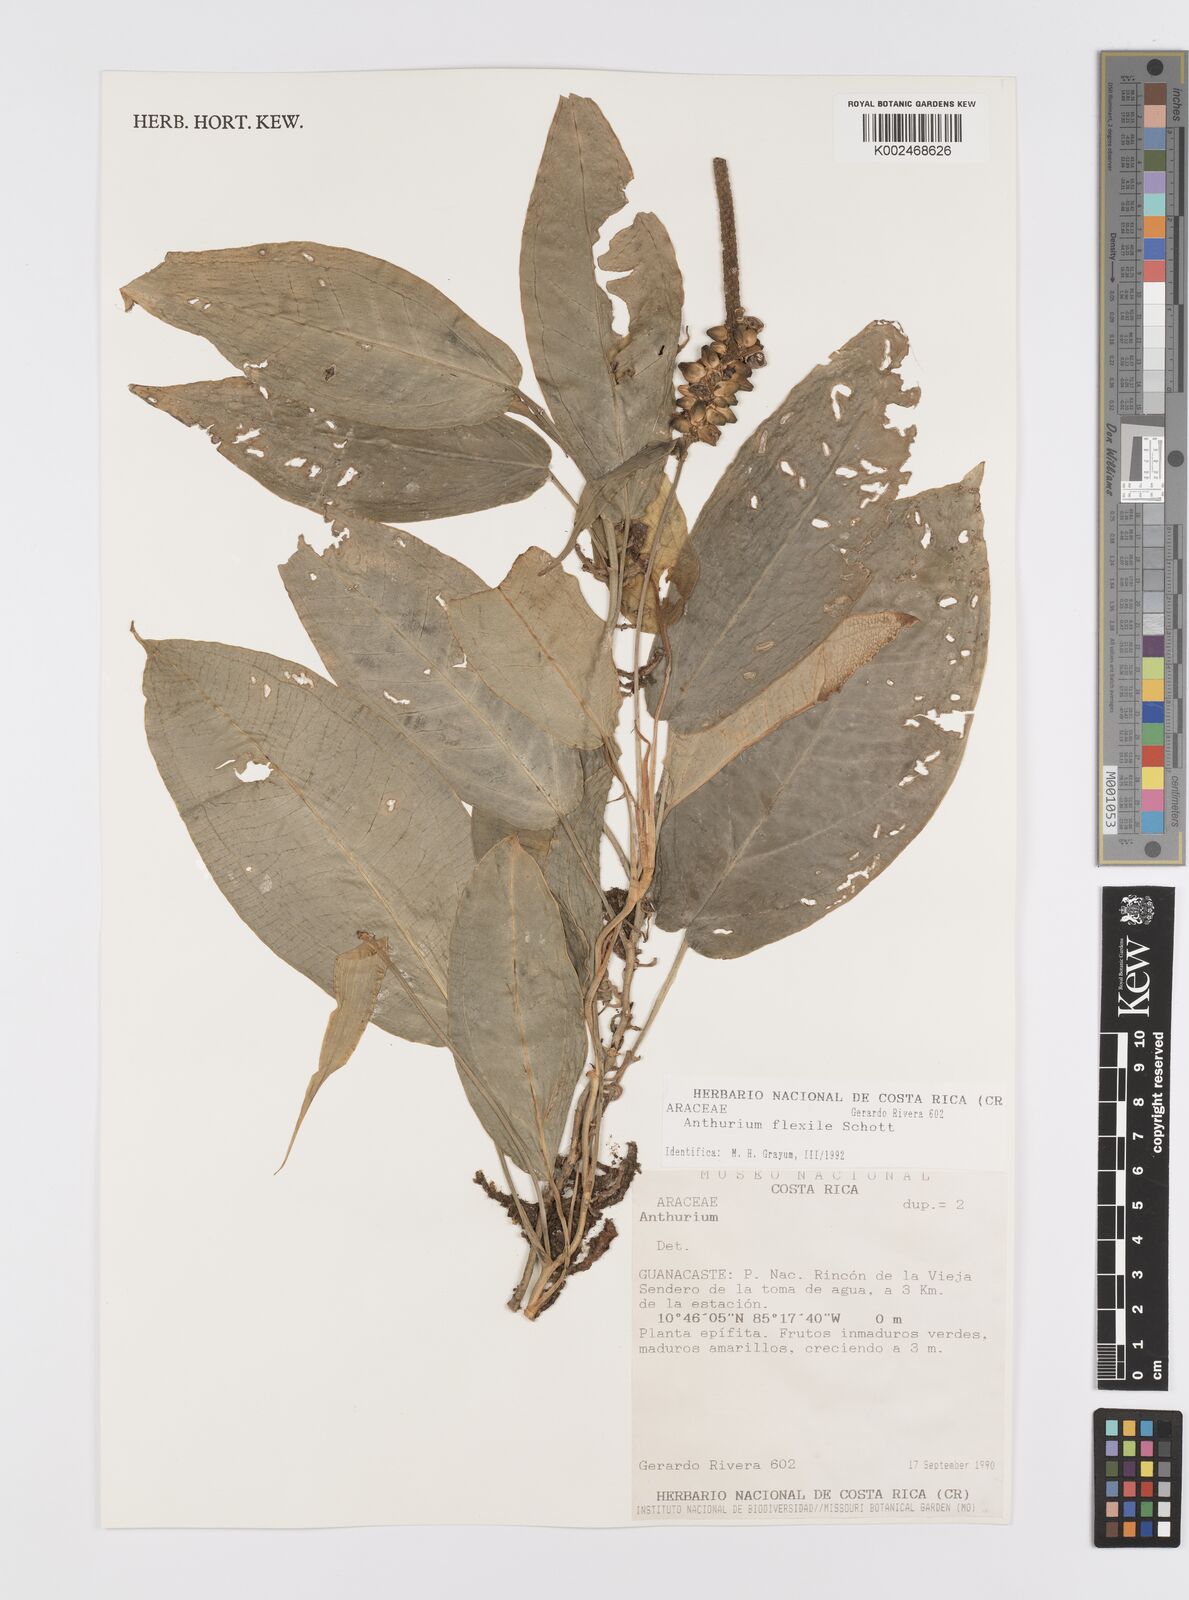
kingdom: Plantae
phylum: Tracheophyta
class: Liliopsida
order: Alismatales
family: Araceae
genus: Anthurium
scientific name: Anthurium flexile
